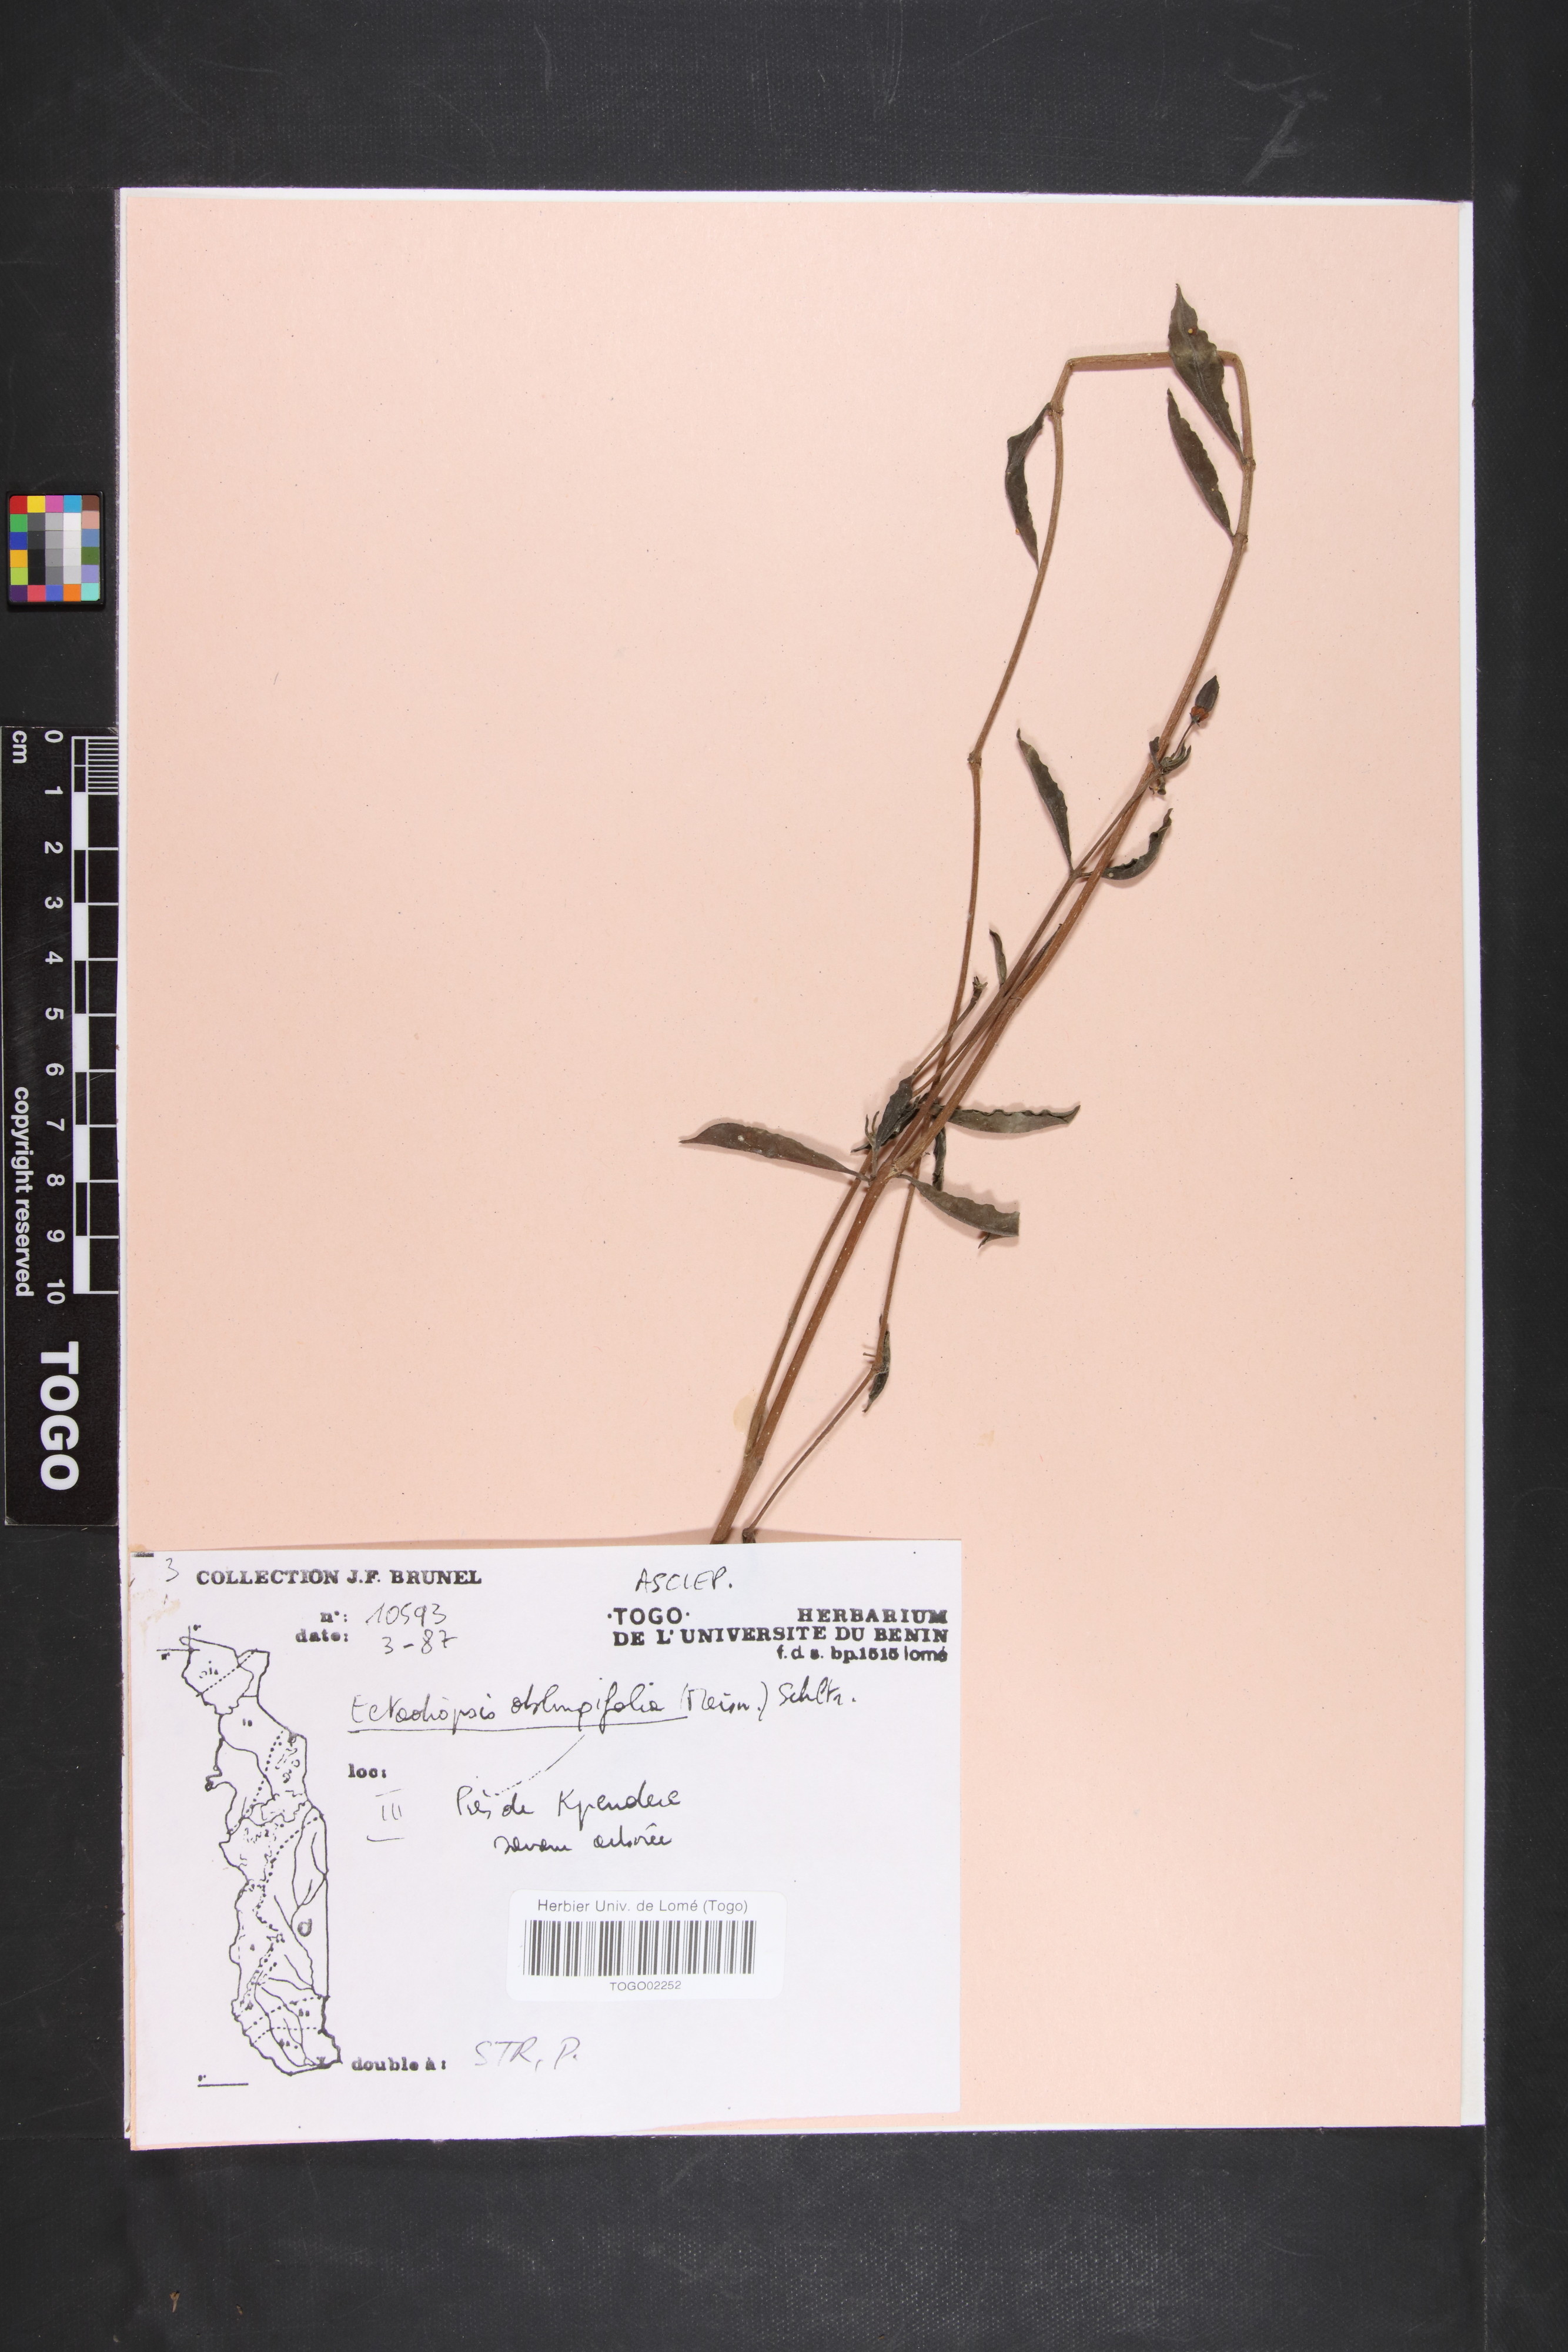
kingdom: Plantae
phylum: Tracheophyta
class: Magnoliopsida
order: Gentianales
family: Apocynaceae
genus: Cryptolepis
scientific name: Cryptolepis oblongifolia
